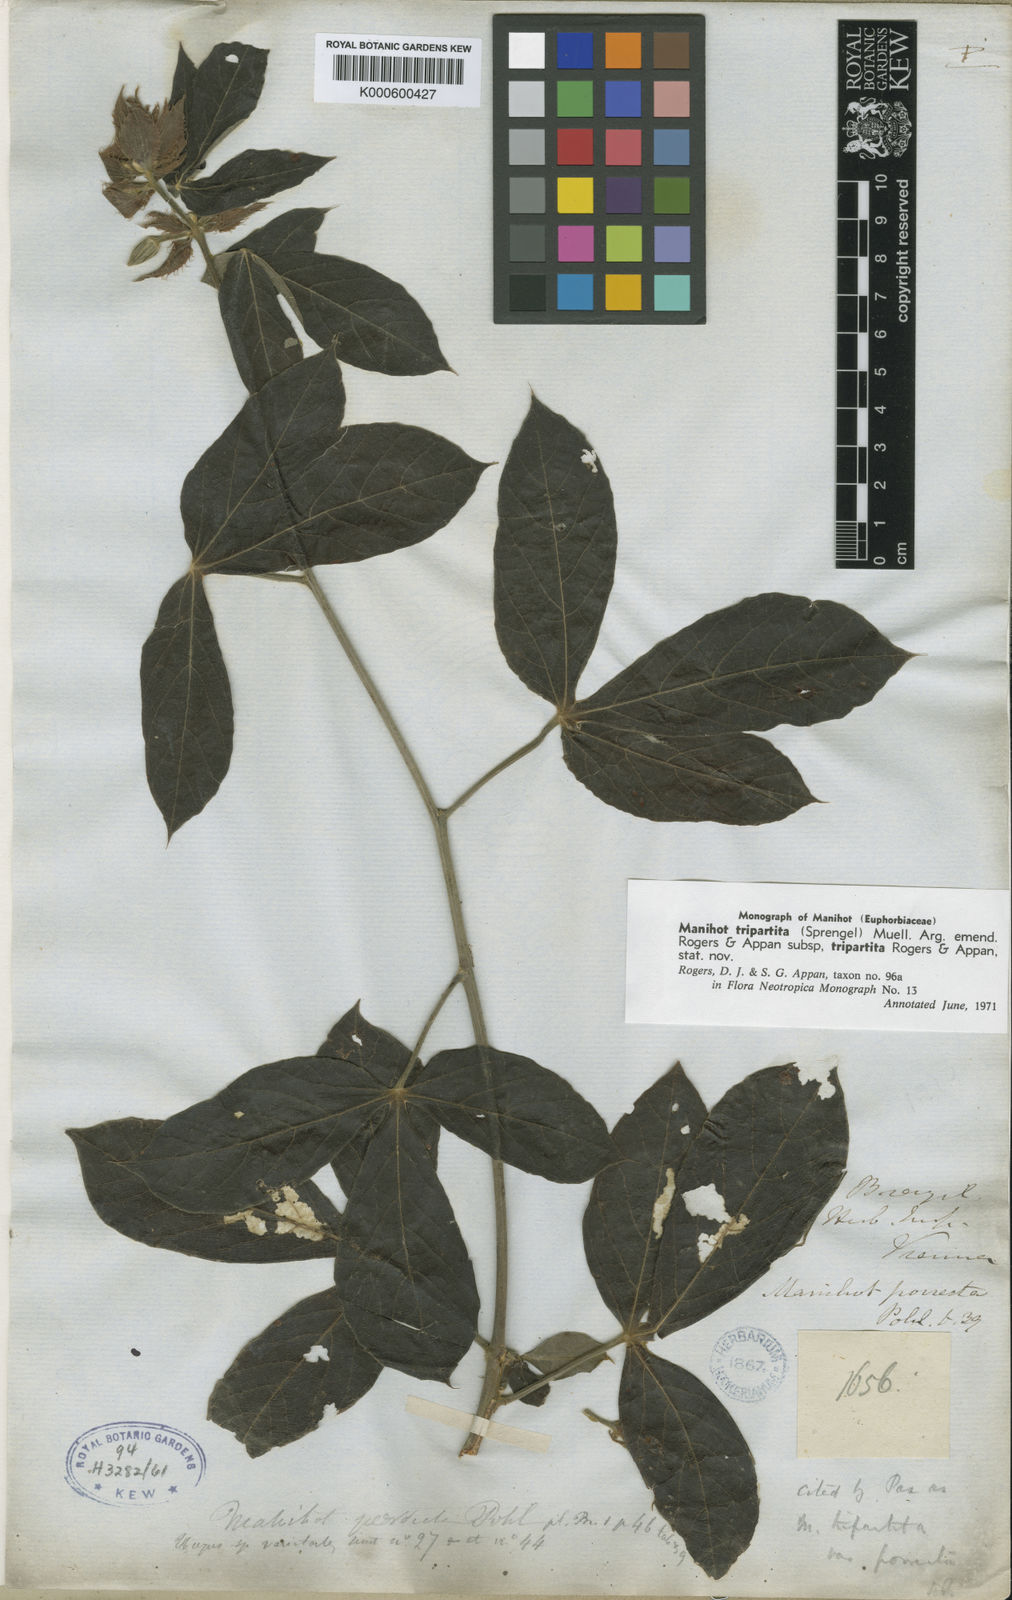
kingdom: Plantae
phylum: Tracheophyta
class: Magnoliopsida
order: Malpighiales
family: Euphorbiaceae
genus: Manihot
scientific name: Manihot
